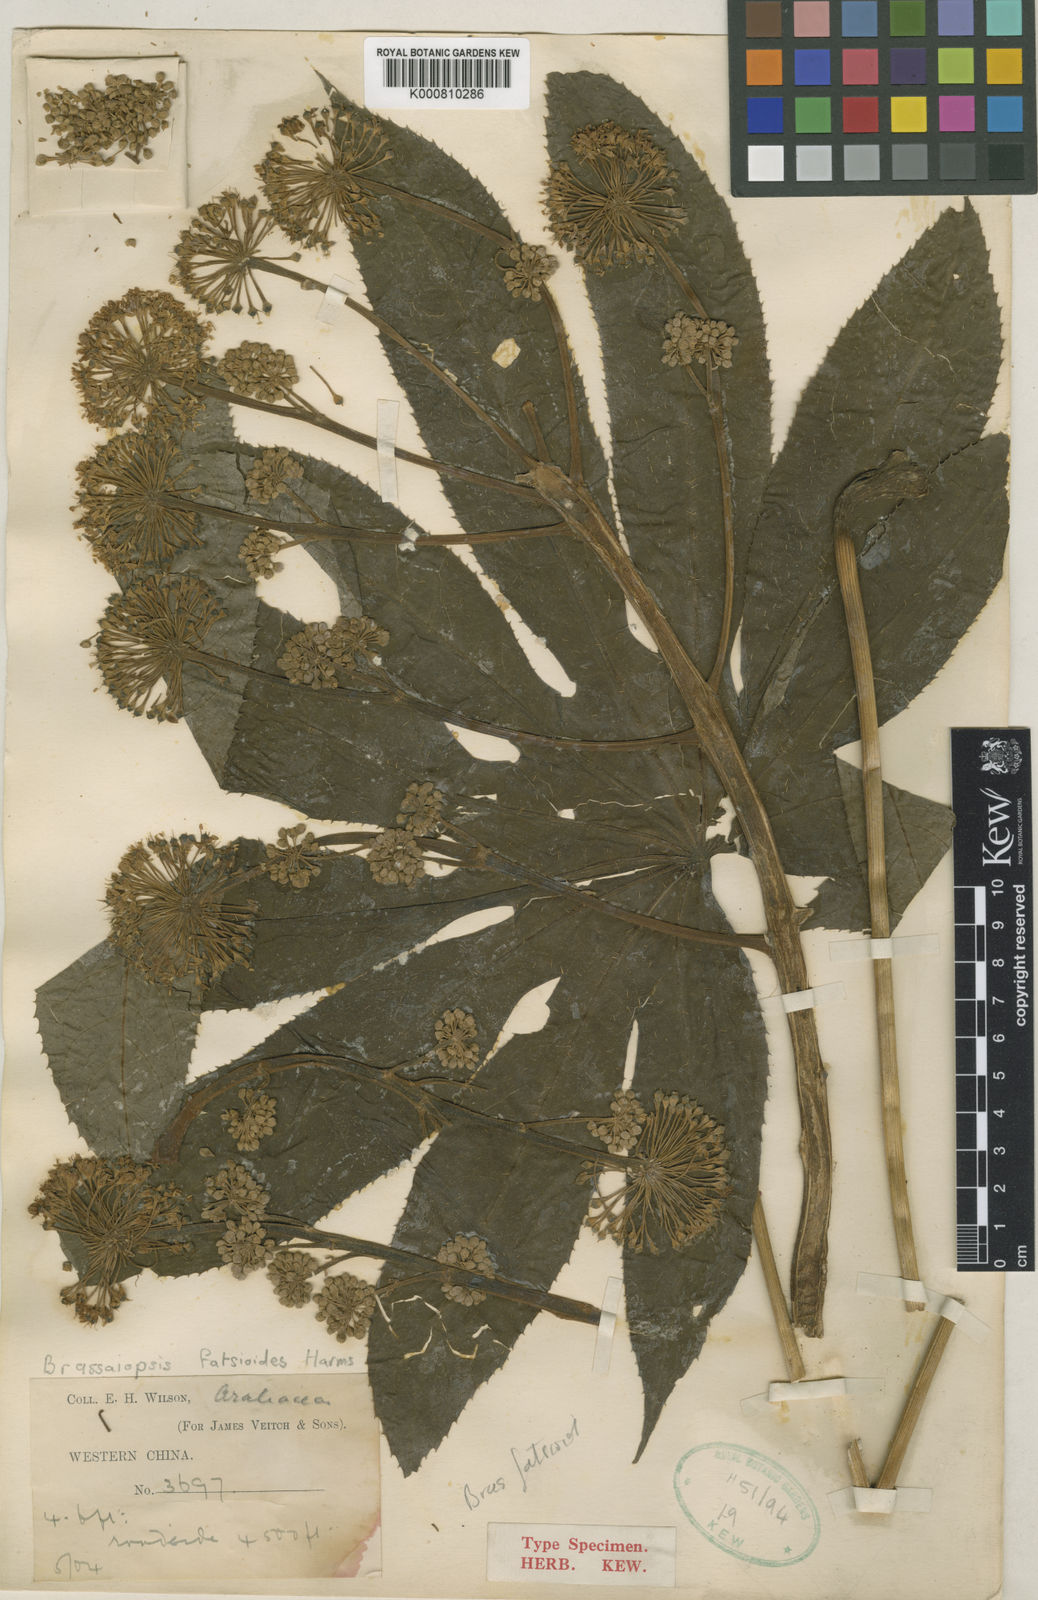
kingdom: Plantae
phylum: Tracheophyta
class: Magnoliopsida
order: Apiales
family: Araliaceae
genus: Brassaiopsis
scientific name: Brassaiopsis ciliata
